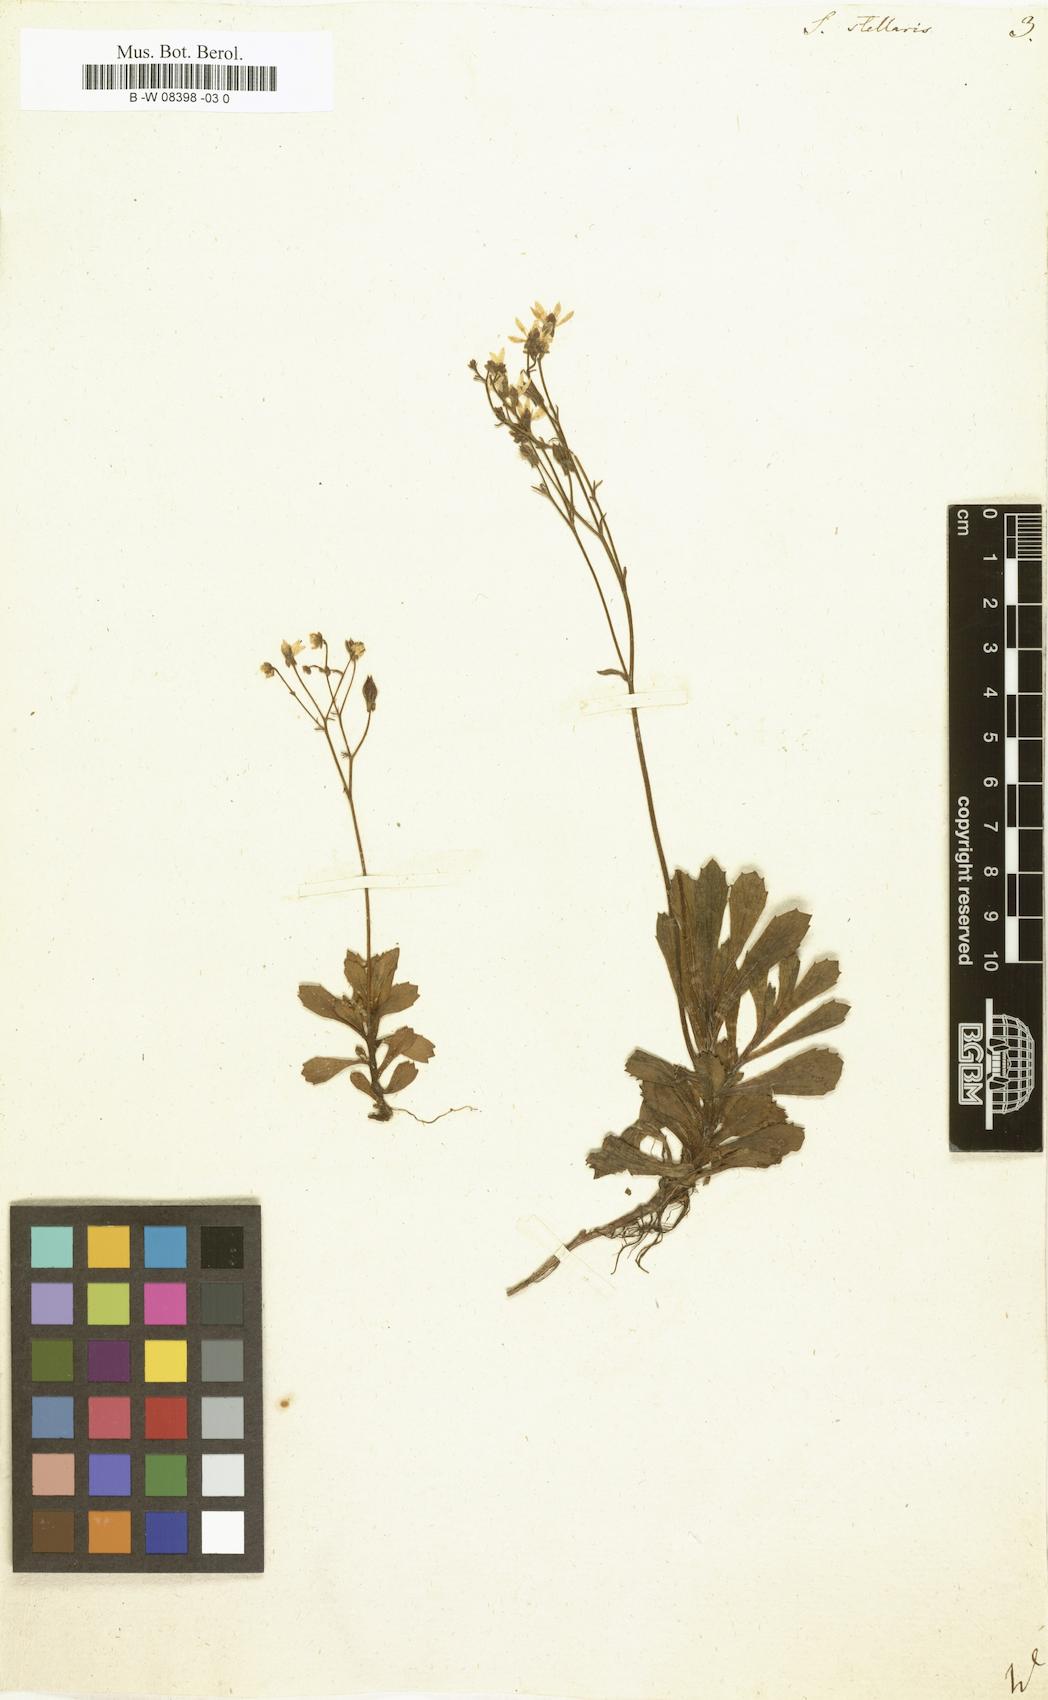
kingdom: Plantae
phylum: Tracheophyta
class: Magnoliopsida
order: Saxifragales
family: Saxifragaceae
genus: Micranthes
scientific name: Micranthes stellaris
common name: Starry saxifrage
